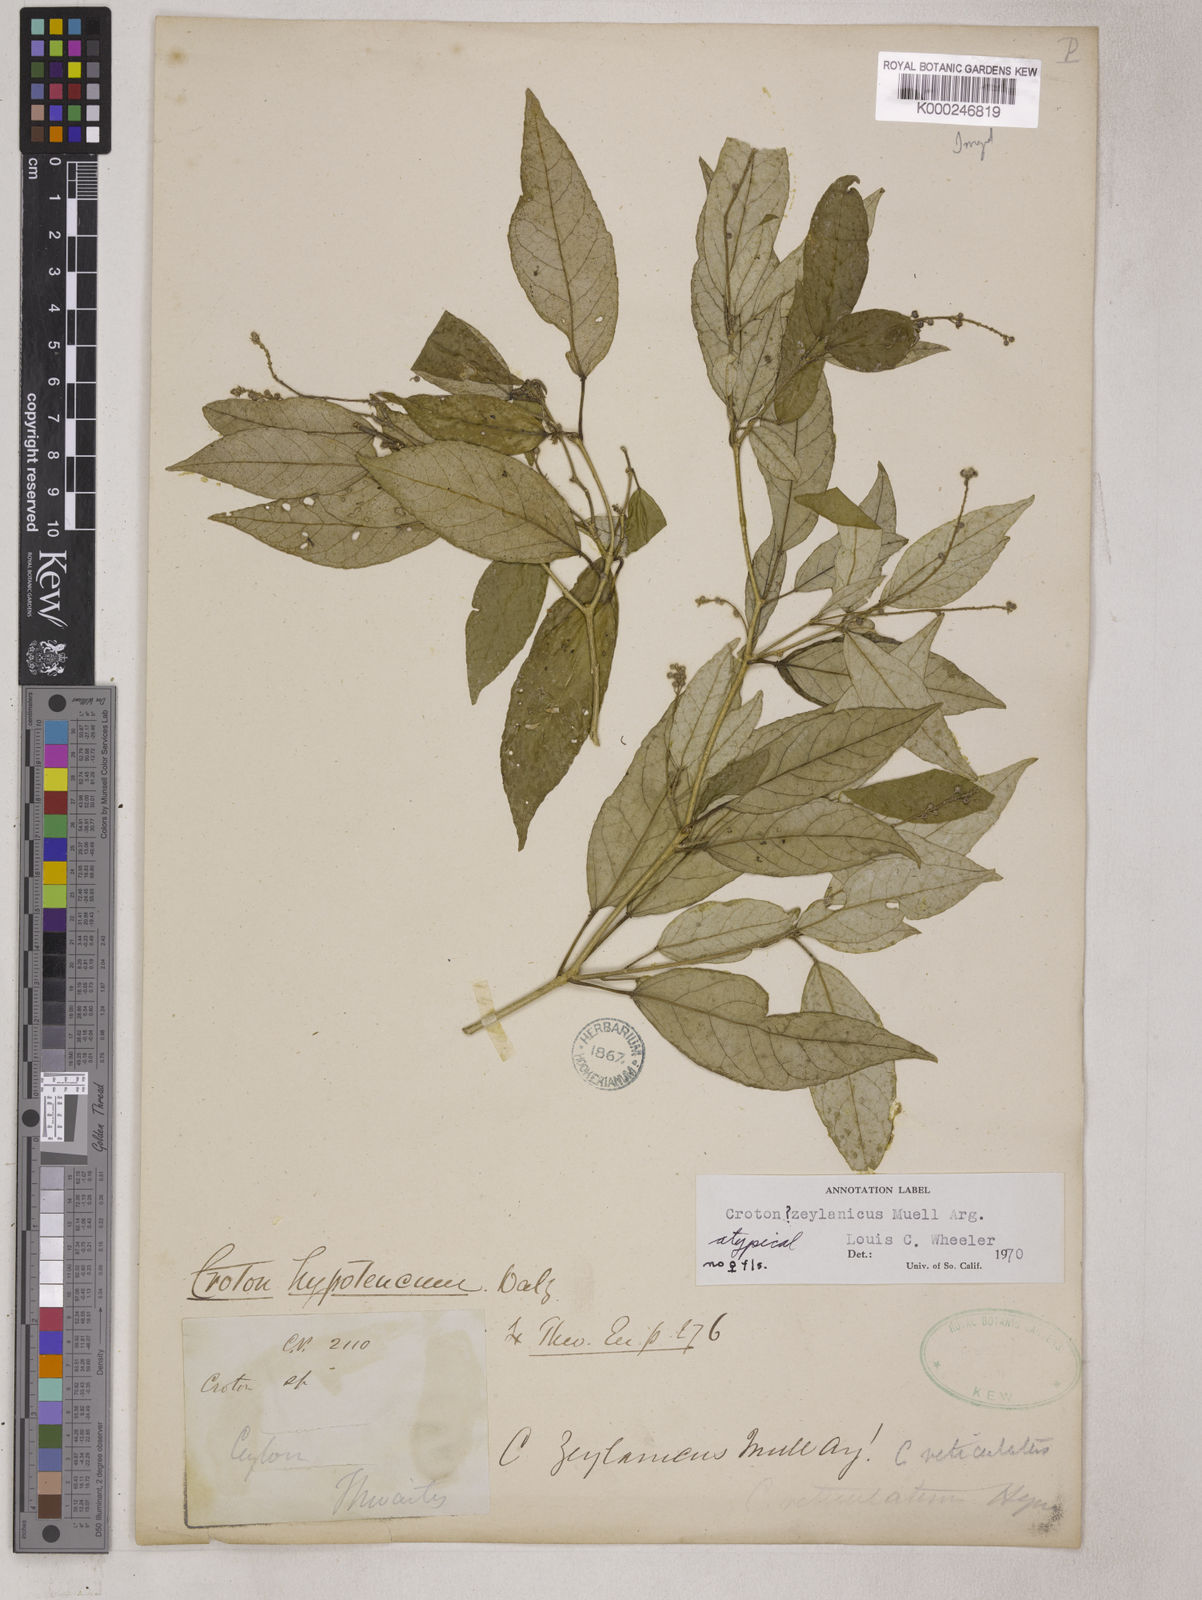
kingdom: Plantae
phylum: Tracheophyta
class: Magnoliopsida
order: Malpighiales
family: Euphorbiaceae
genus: Croton
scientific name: Croton
